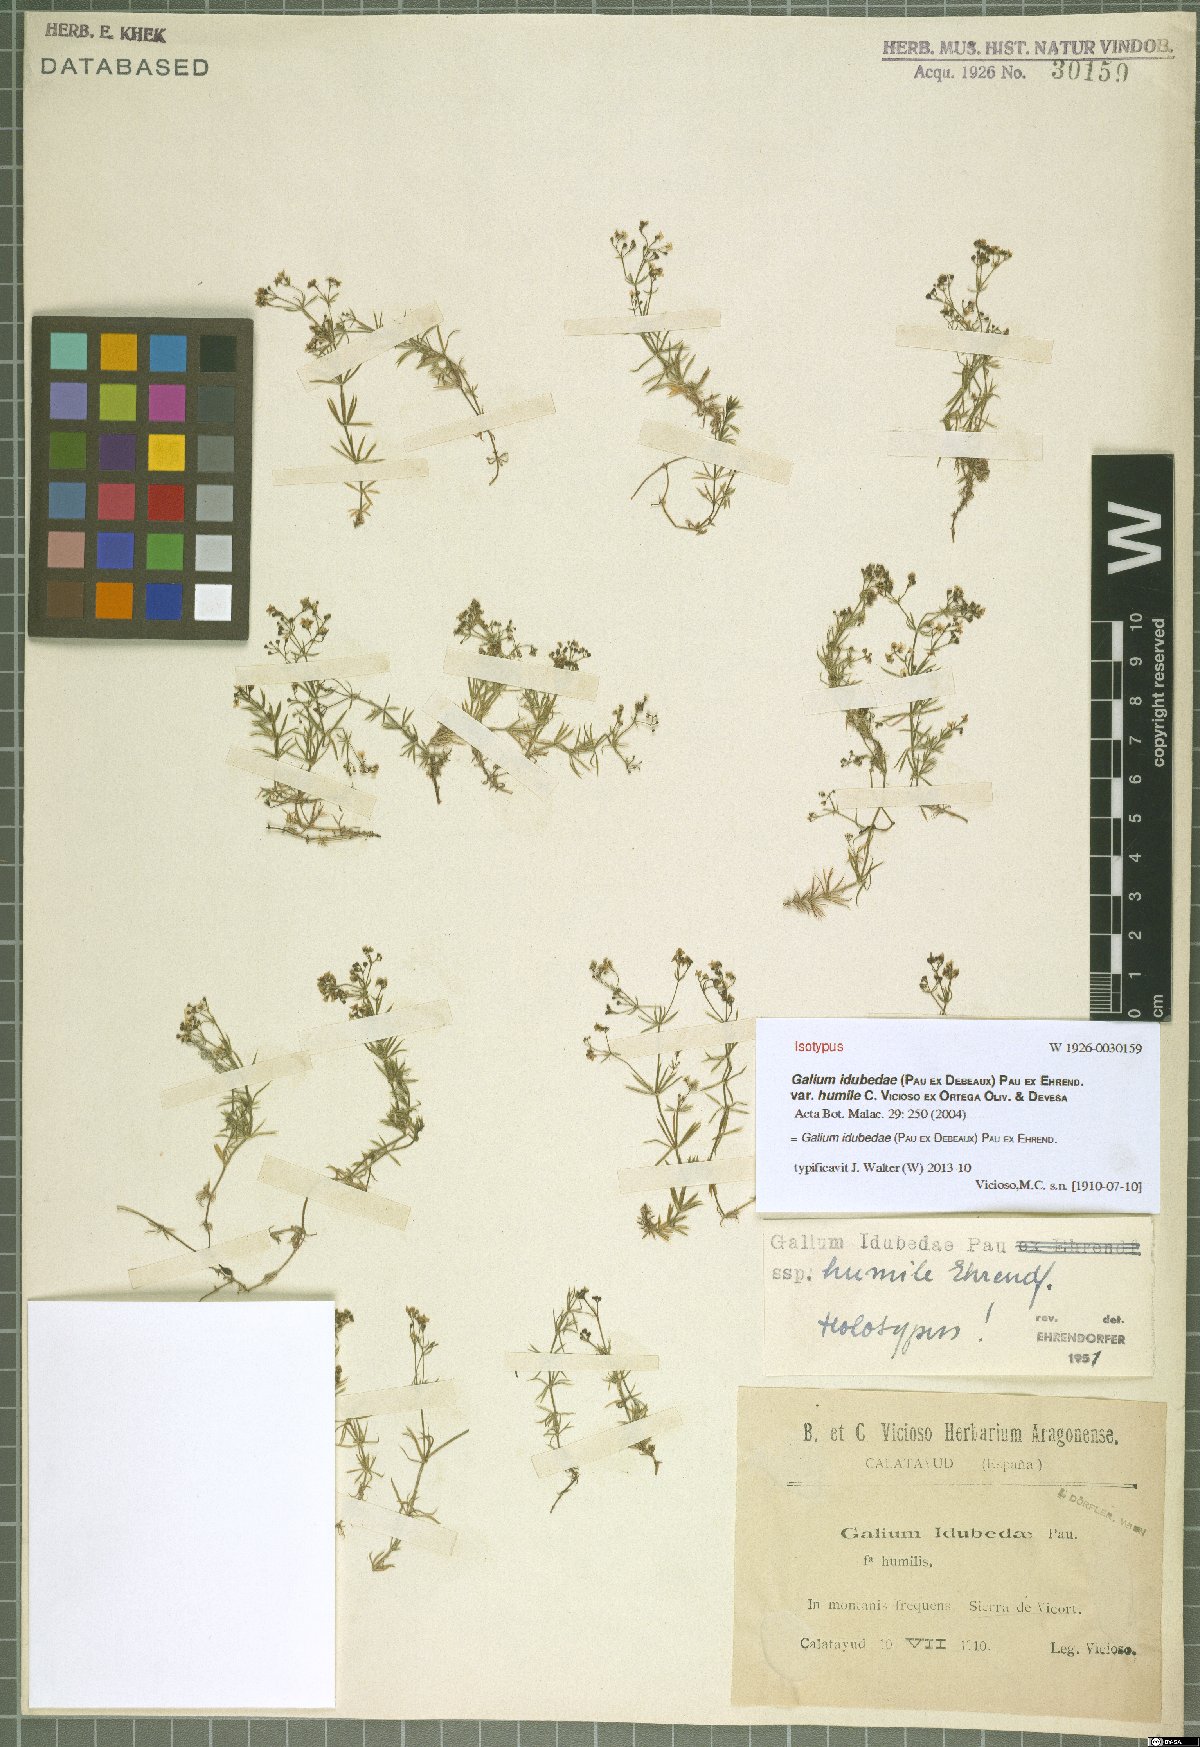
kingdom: Plantae
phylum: Tracheophyta
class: Magnoliopsida
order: Gentianales
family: Rubiaceae
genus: Galium
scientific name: Galium idubedae
